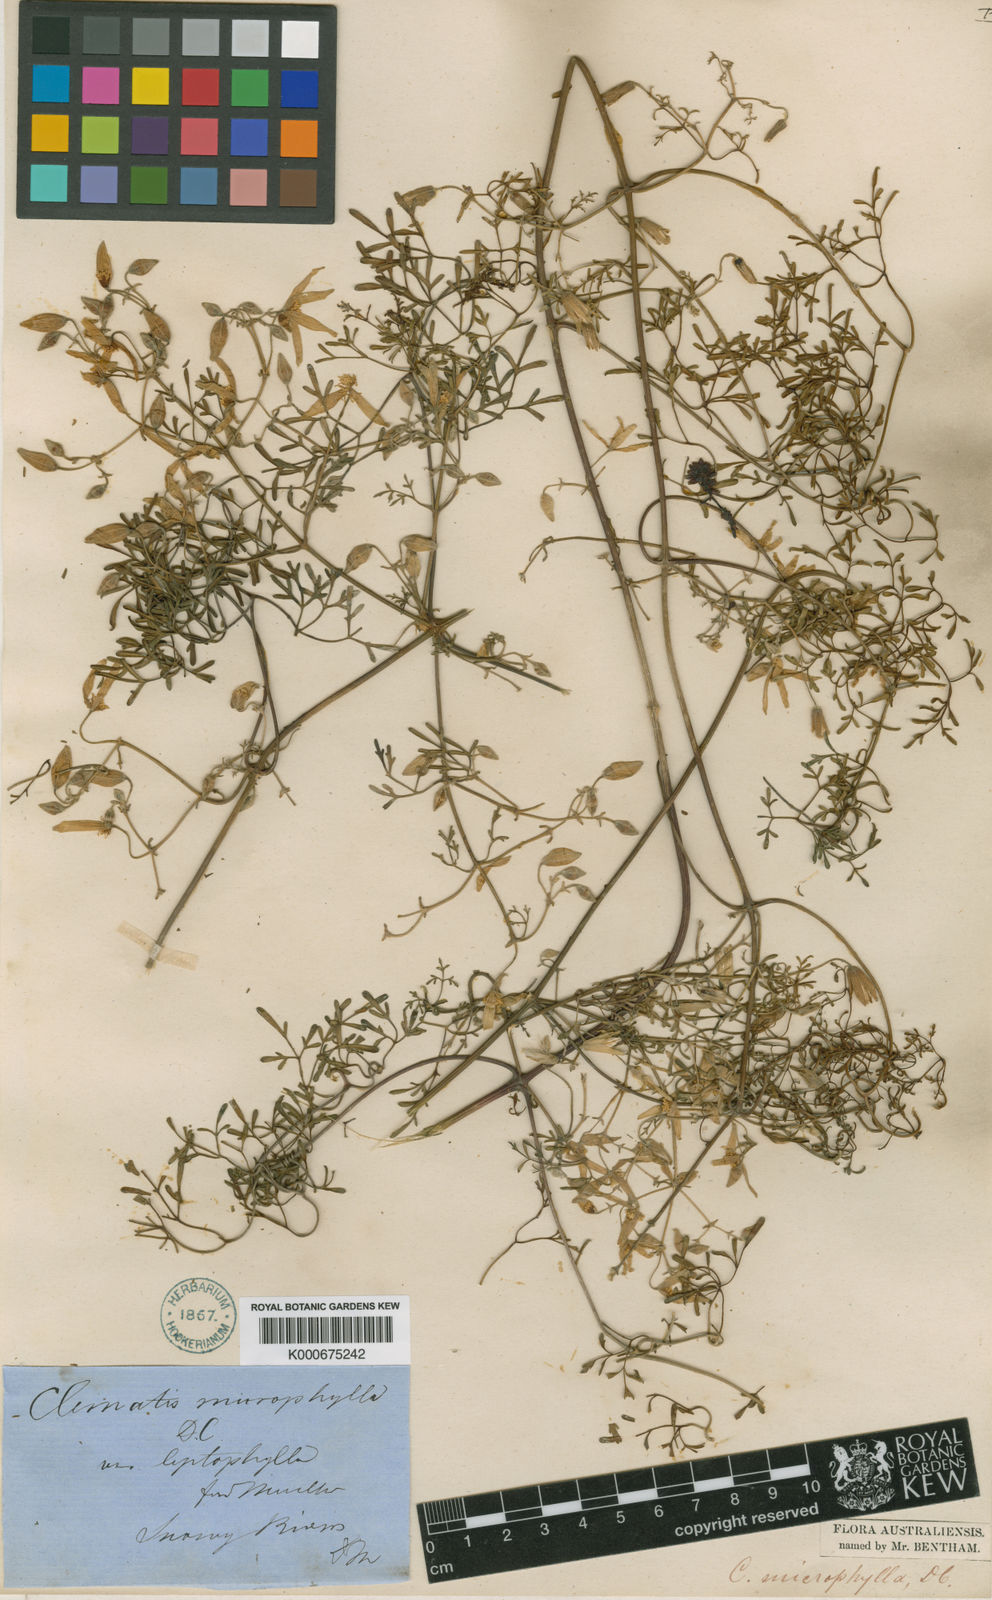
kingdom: Plantae
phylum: Tracheophyta
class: Magnoliopsida
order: Ranunculales
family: Ranunculaceae
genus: Clematis
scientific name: Clematis leptophylla
